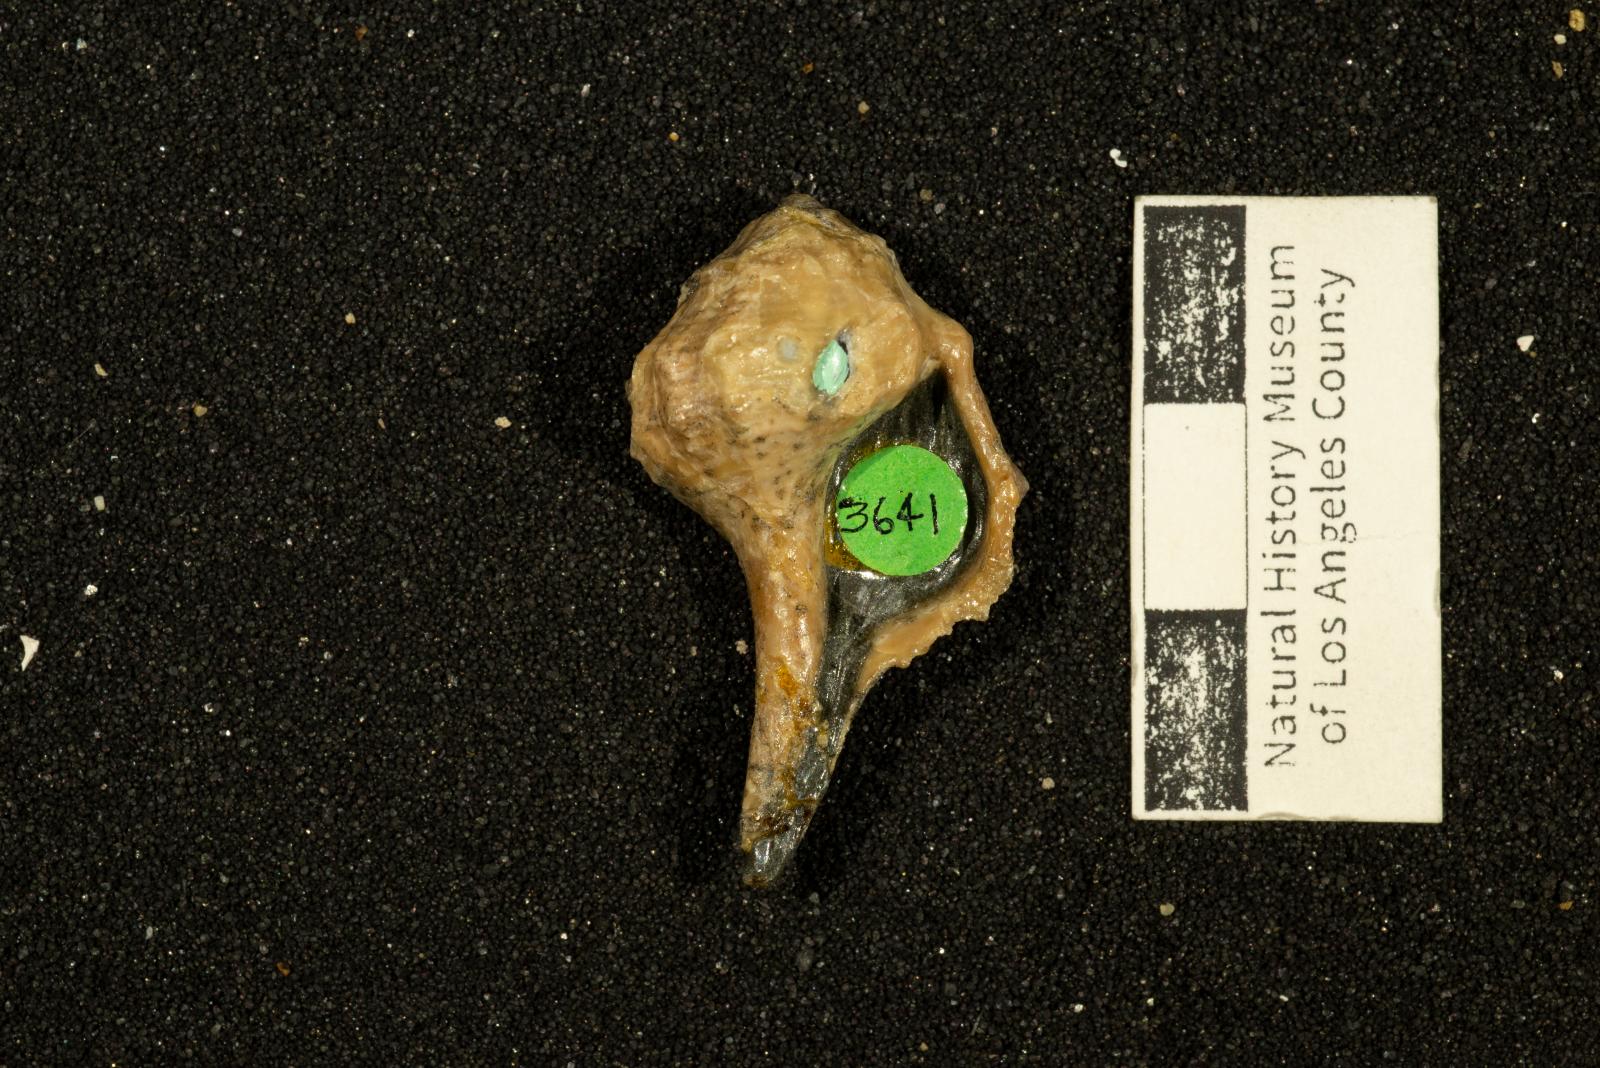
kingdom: Animalia
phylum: Mollusca
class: Gastropoda
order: Neogastropoda
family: Perissityidae
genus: Perissitys
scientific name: Perissitys Perissolax brevirostris
